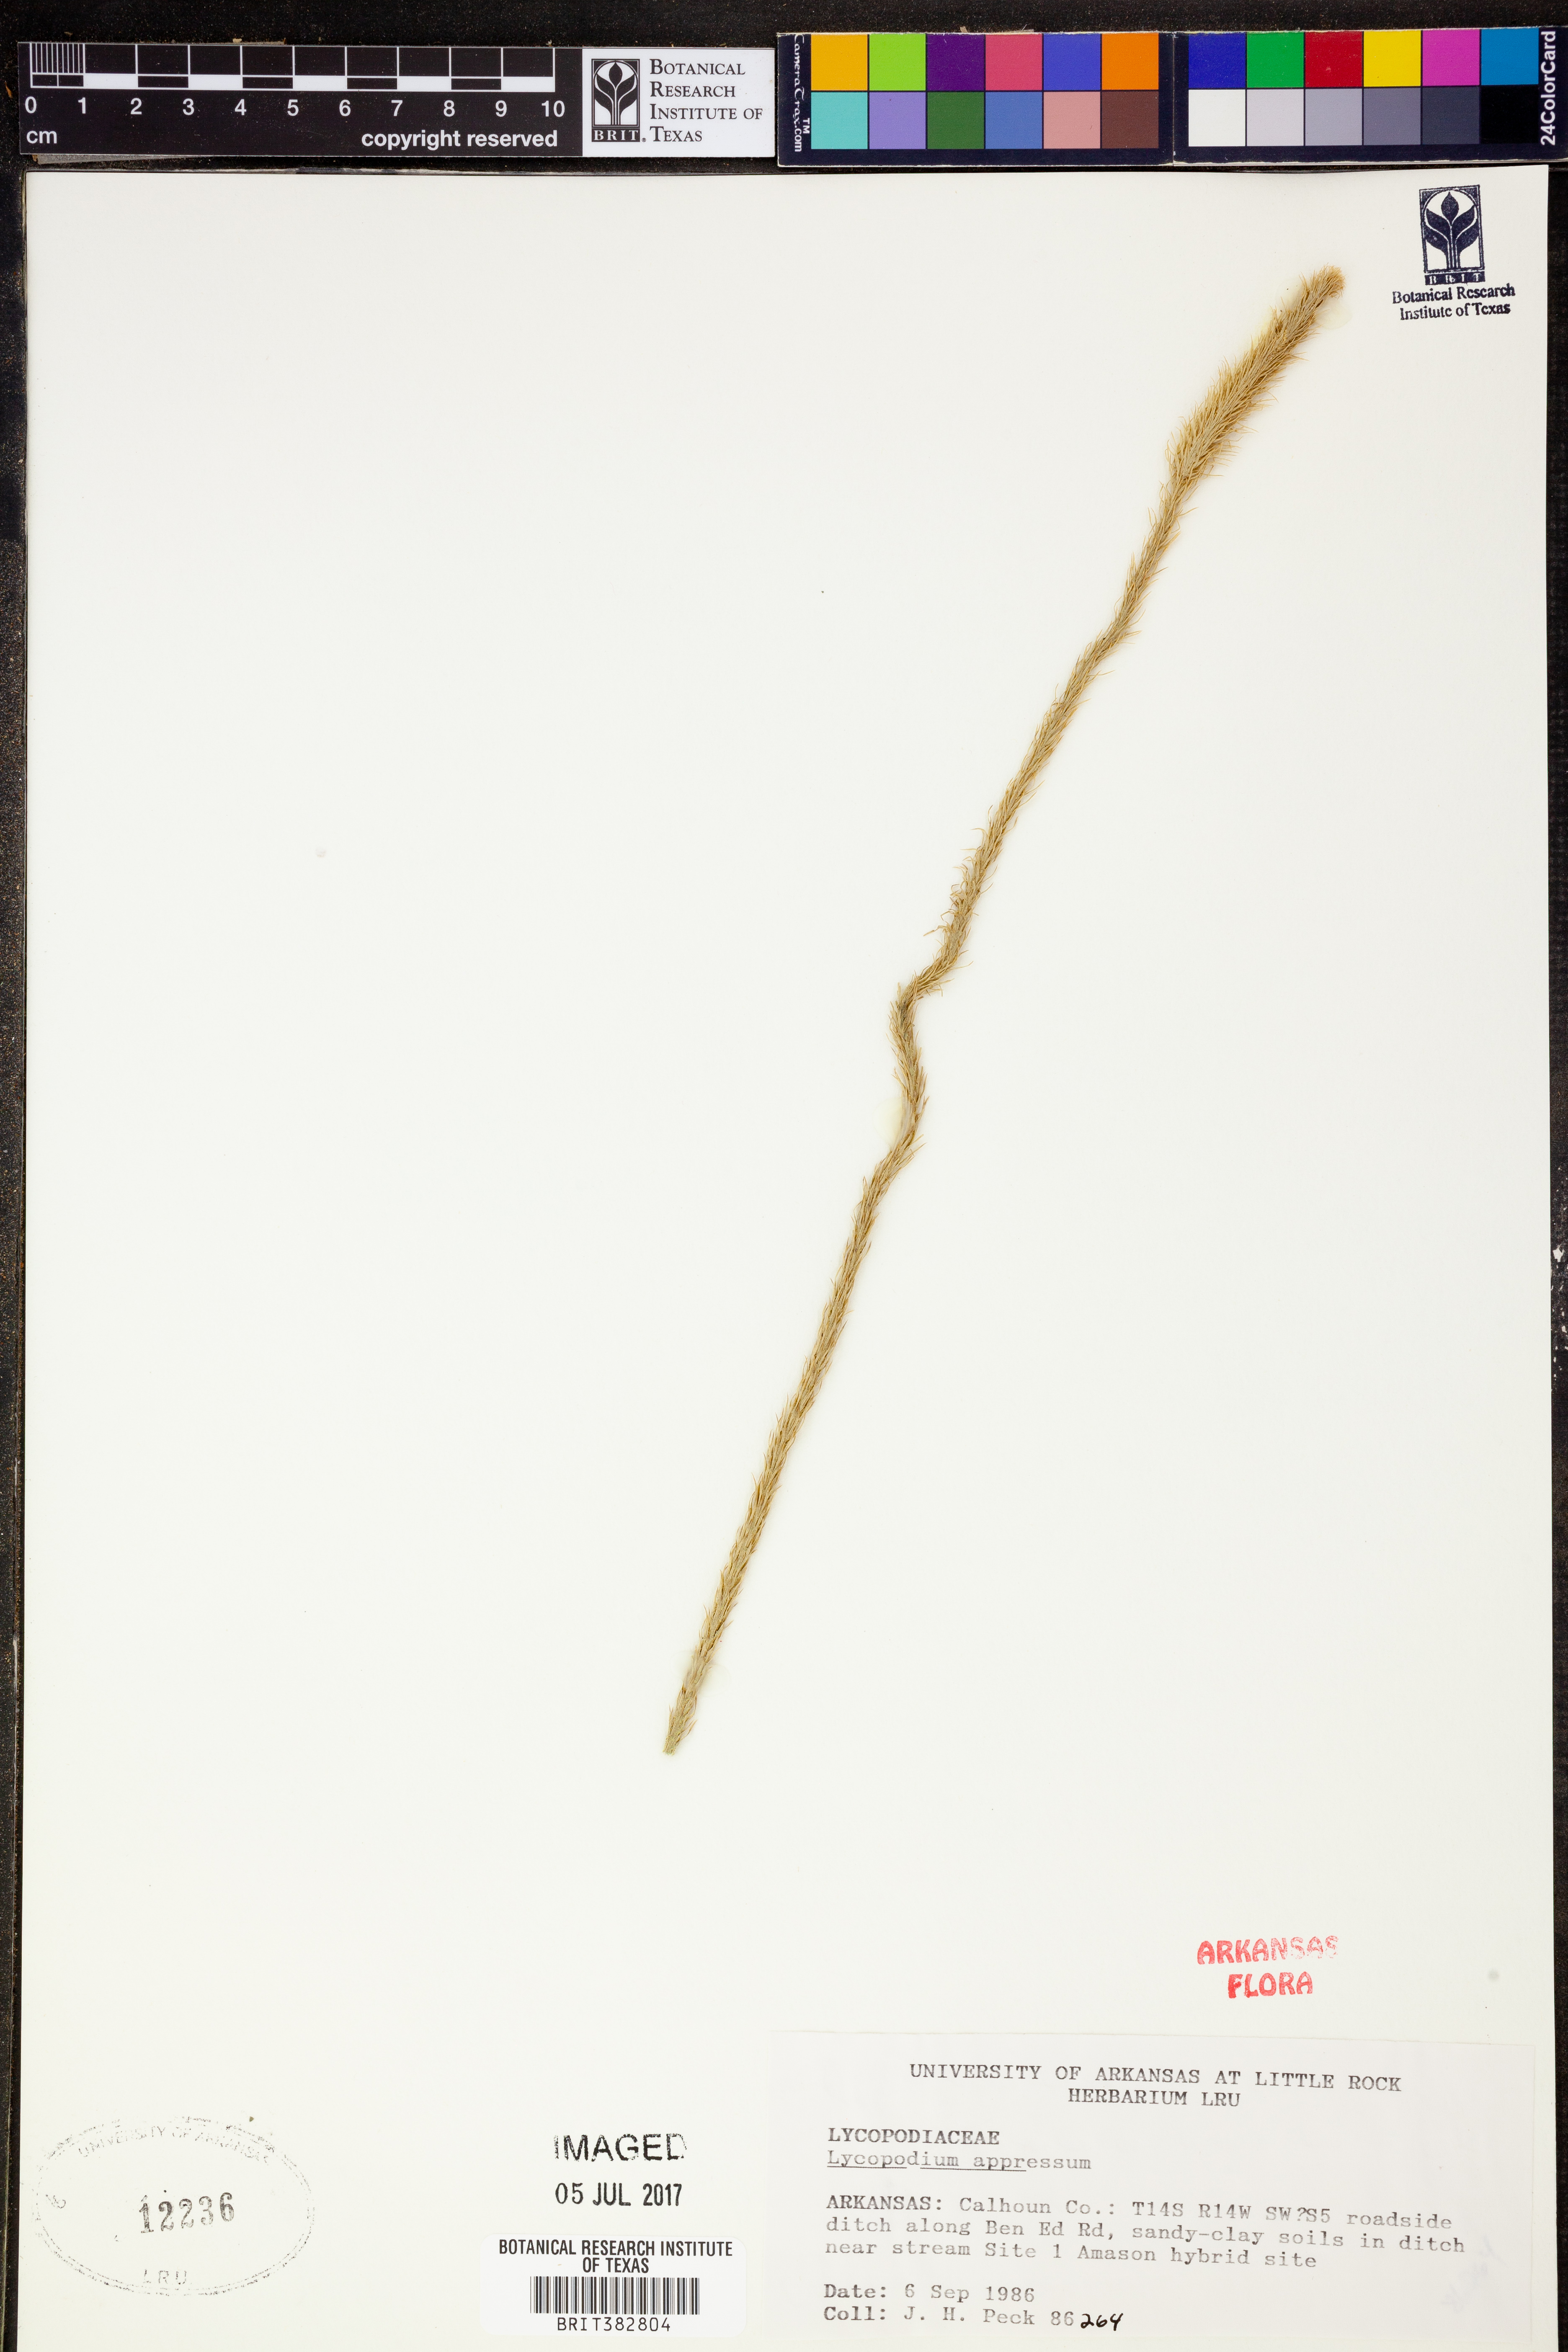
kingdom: Plantae
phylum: Tracheophyta
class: Lycopodiopsida
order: Lycopodiales
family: Lycopodiaceae
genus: Lycopodiella
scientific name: Lycopodiella appressa
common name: Appressed bog clubmoss
